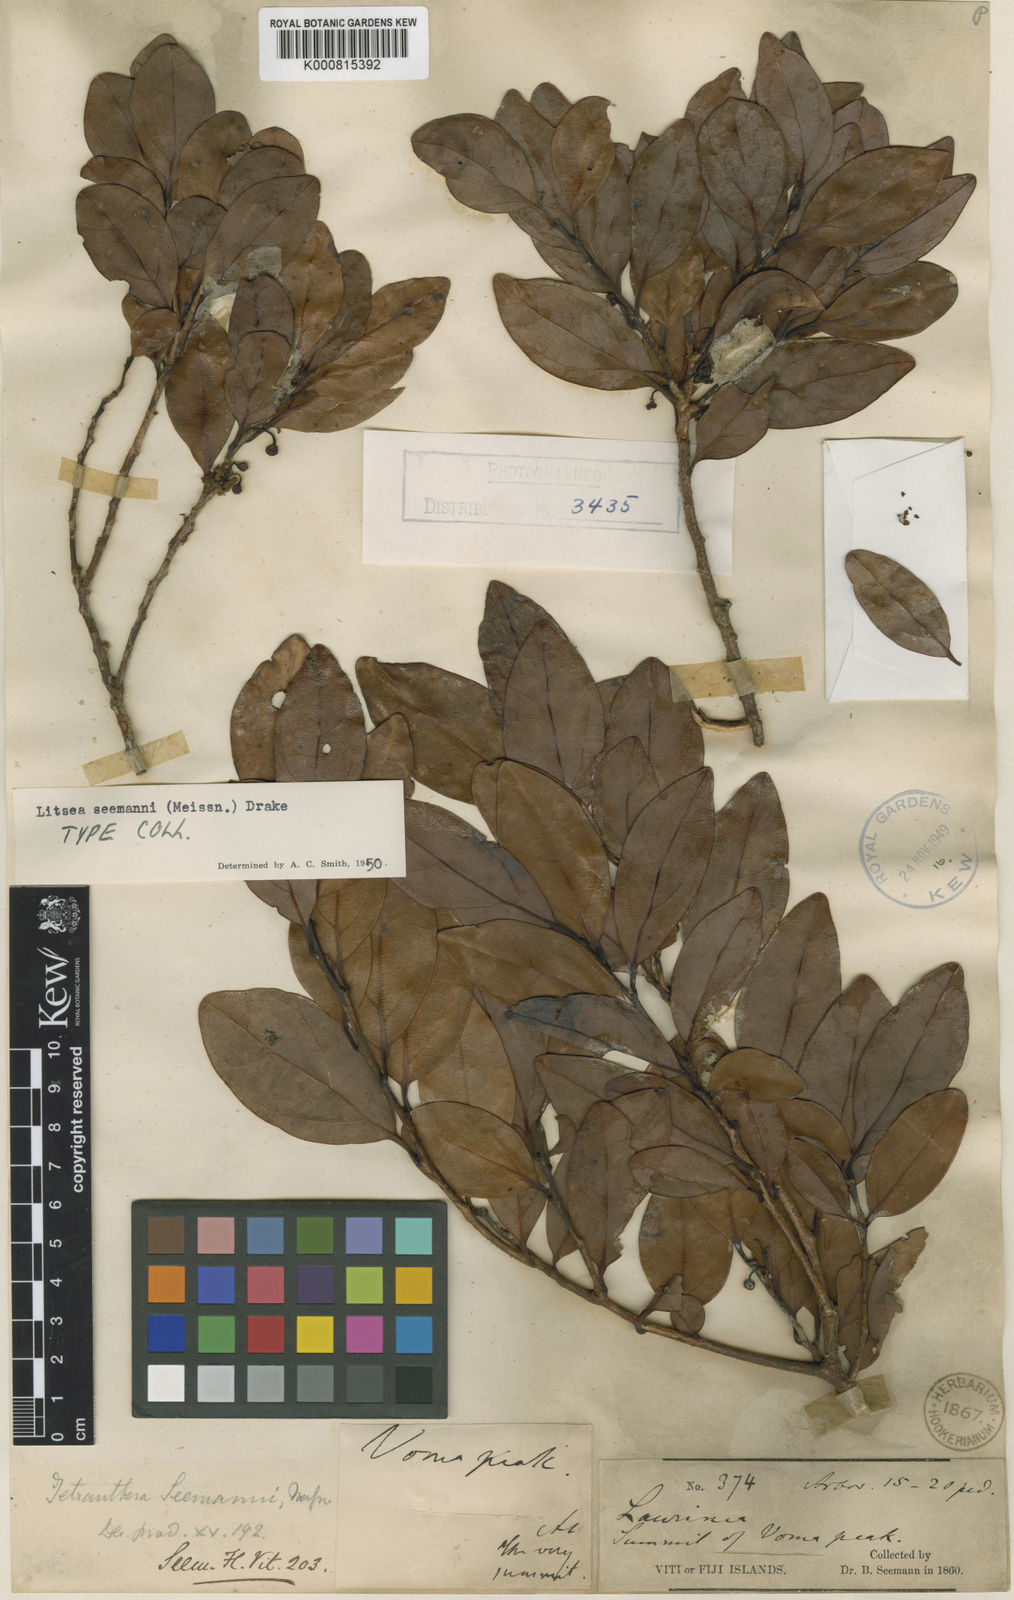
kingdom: Plantae
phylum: Tracheophyta
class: Magnoliopsida
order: Laurales
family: Lauraceae
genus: Litsea
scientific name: Litsea seemannii
